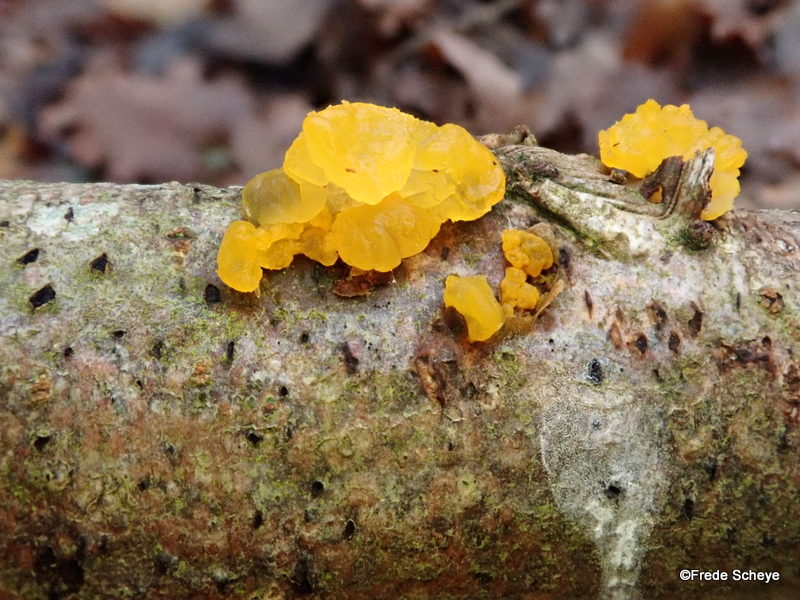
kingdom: Fungi
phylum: Basidiomycota
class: Tremellomycetes
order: Tremellales
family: Tremellaceae
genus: Tremella
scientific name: Tremella mesenterica
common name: gul bævresvamp
